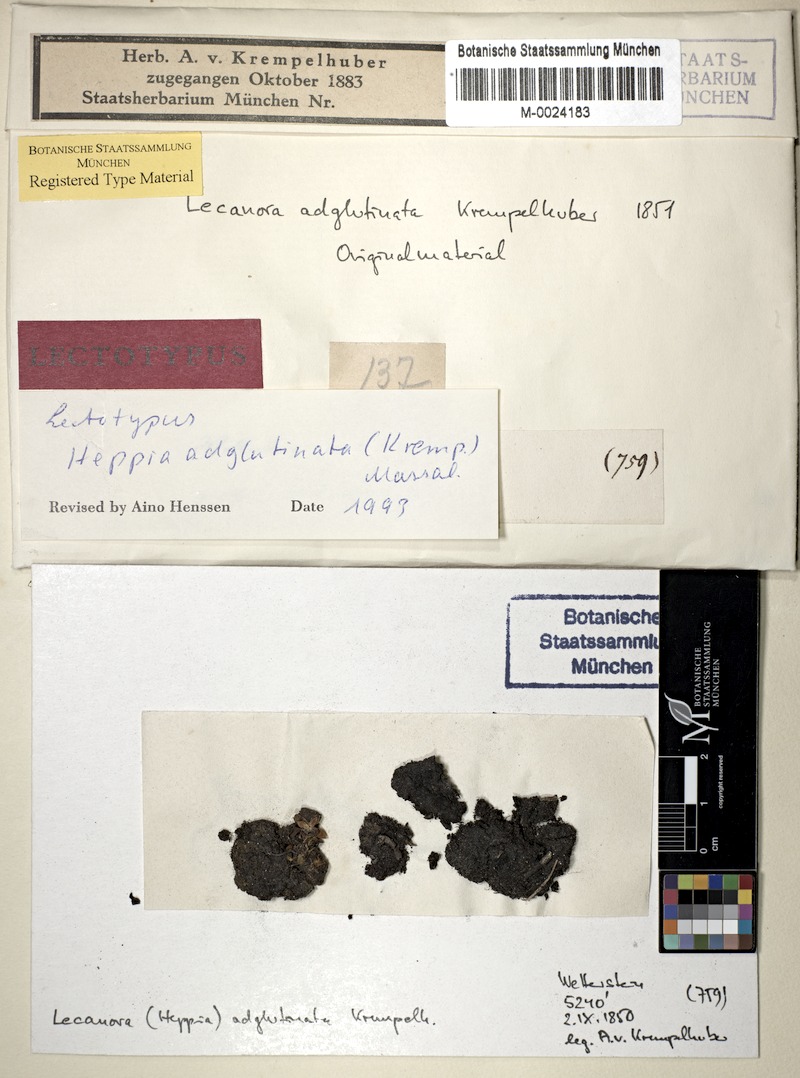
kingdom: Fungi
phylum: Ascomycota
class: Lichinomycetes
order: Lichinales
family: Lichinaceae
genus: Heppia
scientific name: Heppia adglutinata
